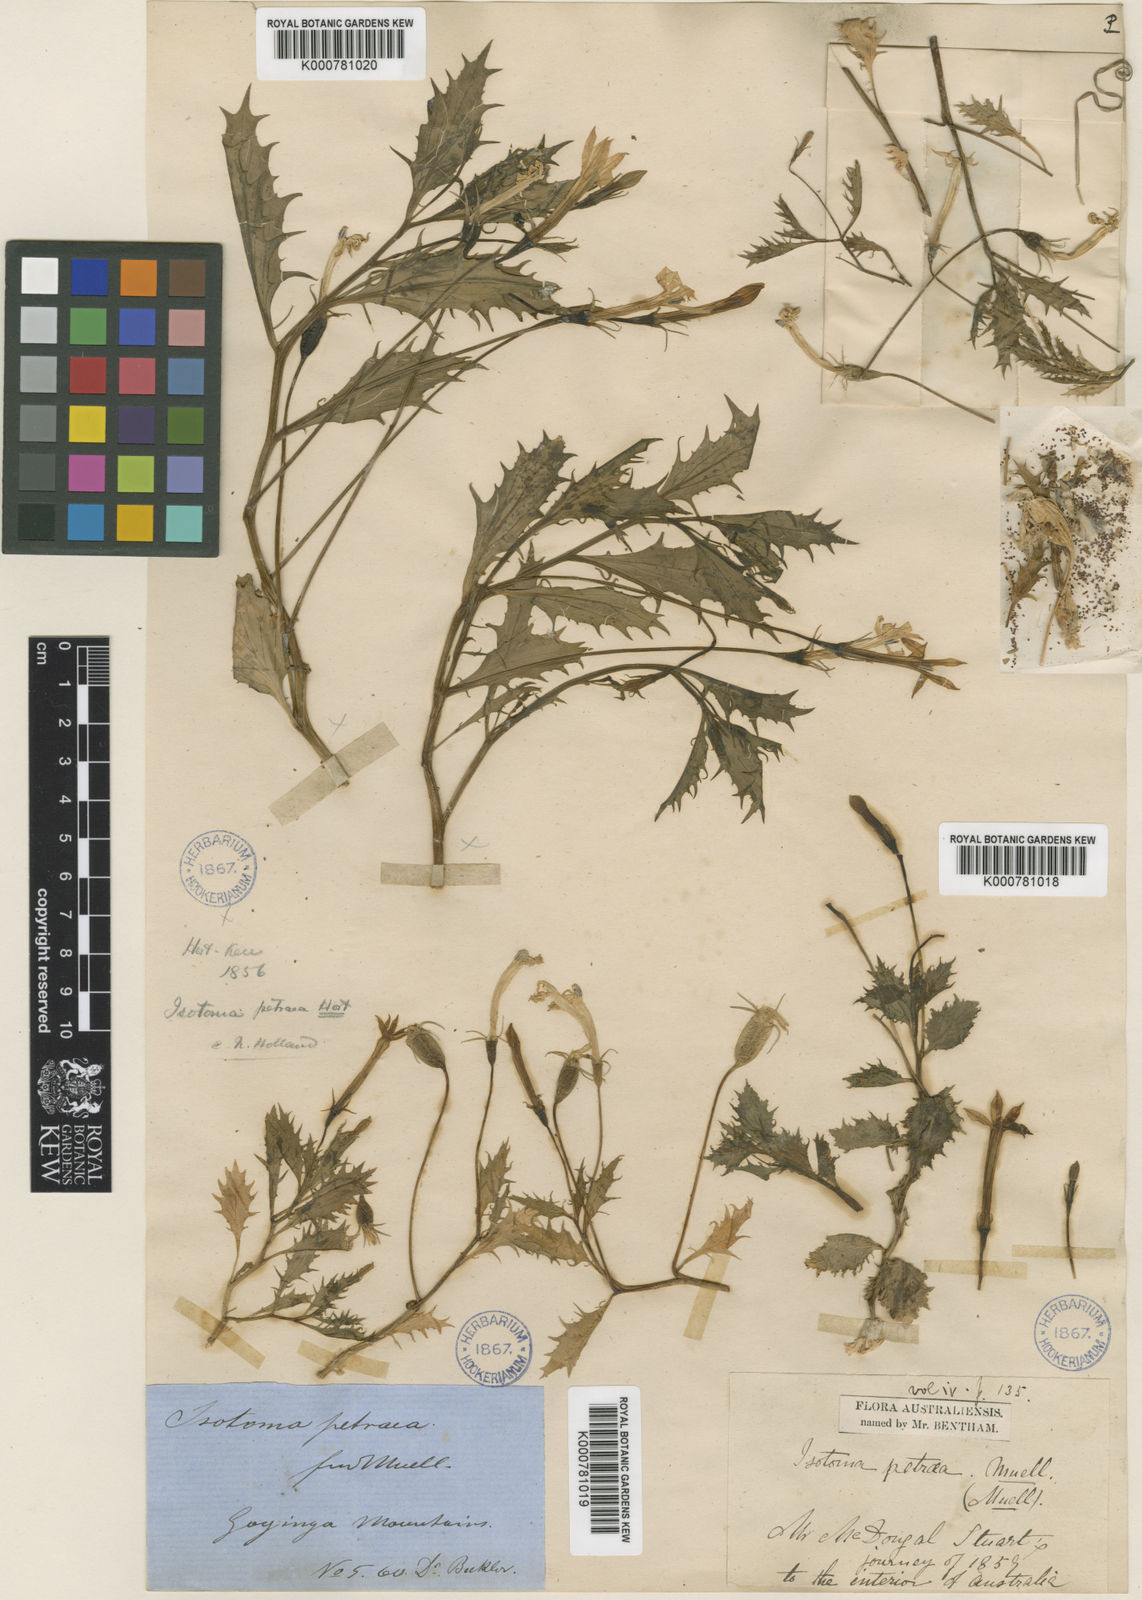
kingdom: Plantae
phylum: Tracheophyta
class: Magnoliopsida
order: Asterales
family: Campanulaceae
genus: Lithotoma
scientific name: Lithotoma petraea
